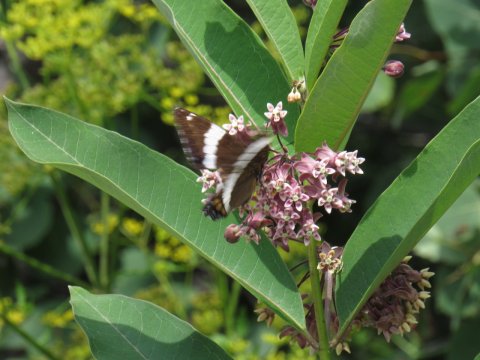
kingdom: Animalia
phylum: Arthropoda
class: Insecta
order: Lepidoptera
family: Nymphalidae
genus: Limenitis
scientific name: Limenitis arthemis
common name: Red-spotted Admiral
